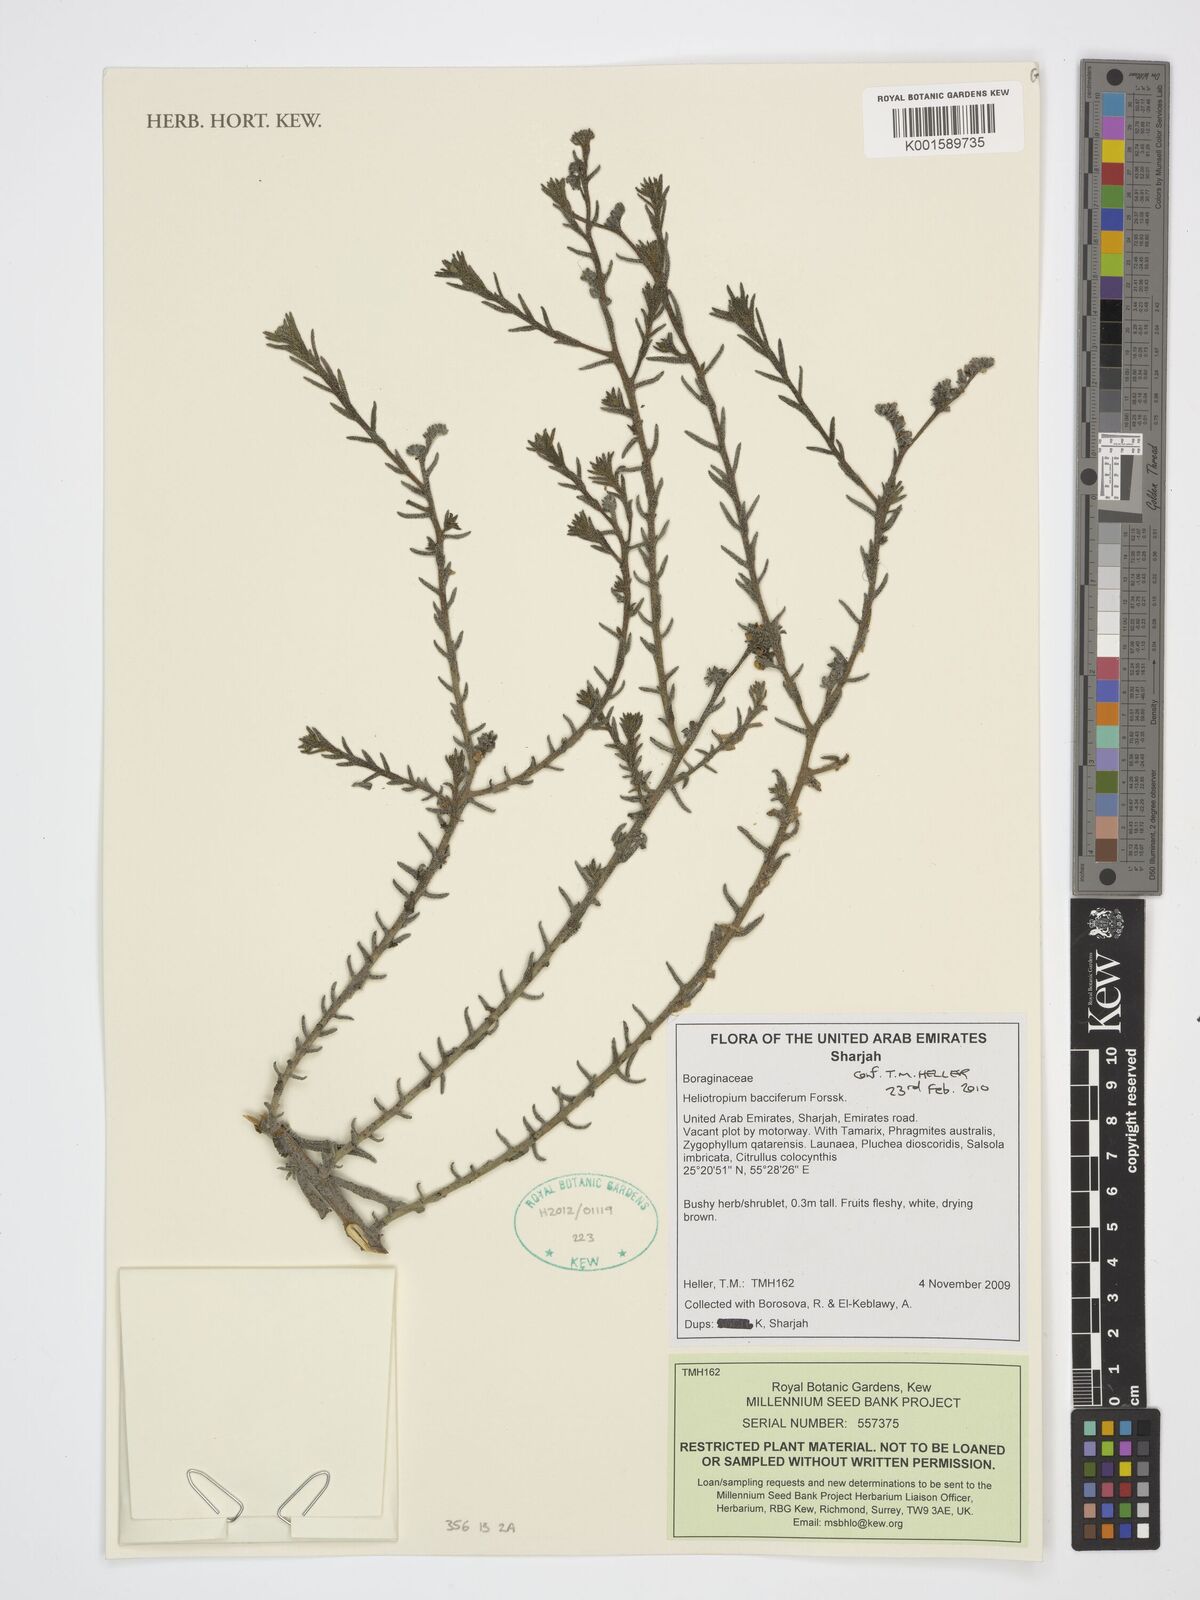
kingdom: Plantae
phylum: Tracheophyta
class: Magnoliopsida
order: Boraginales
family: Heliotropiaceae
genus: Heliotropium
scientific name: Heliotropium bacciferum
